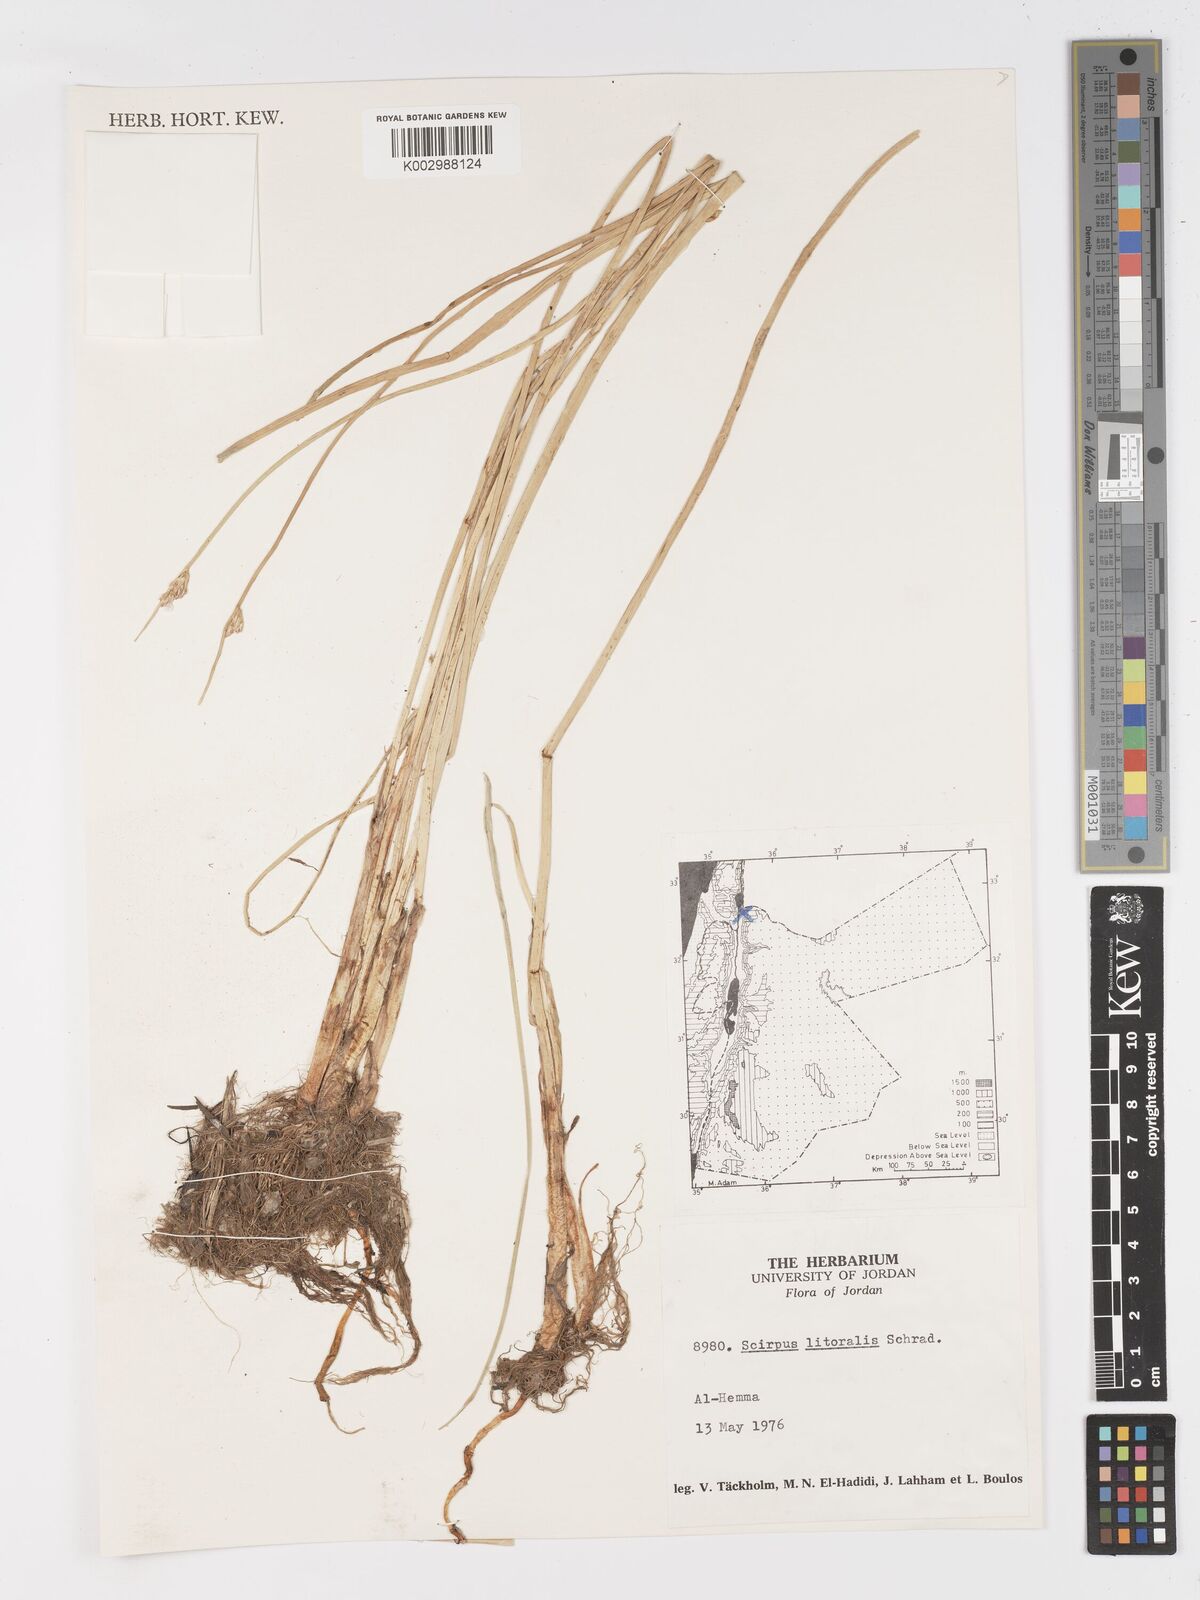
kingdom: Plantae
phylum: Tracheophyta
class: Liliopsida
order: Poales
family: Cyperaceae
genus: Schoenoplectus
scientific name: Schoenoplectus litoralis
